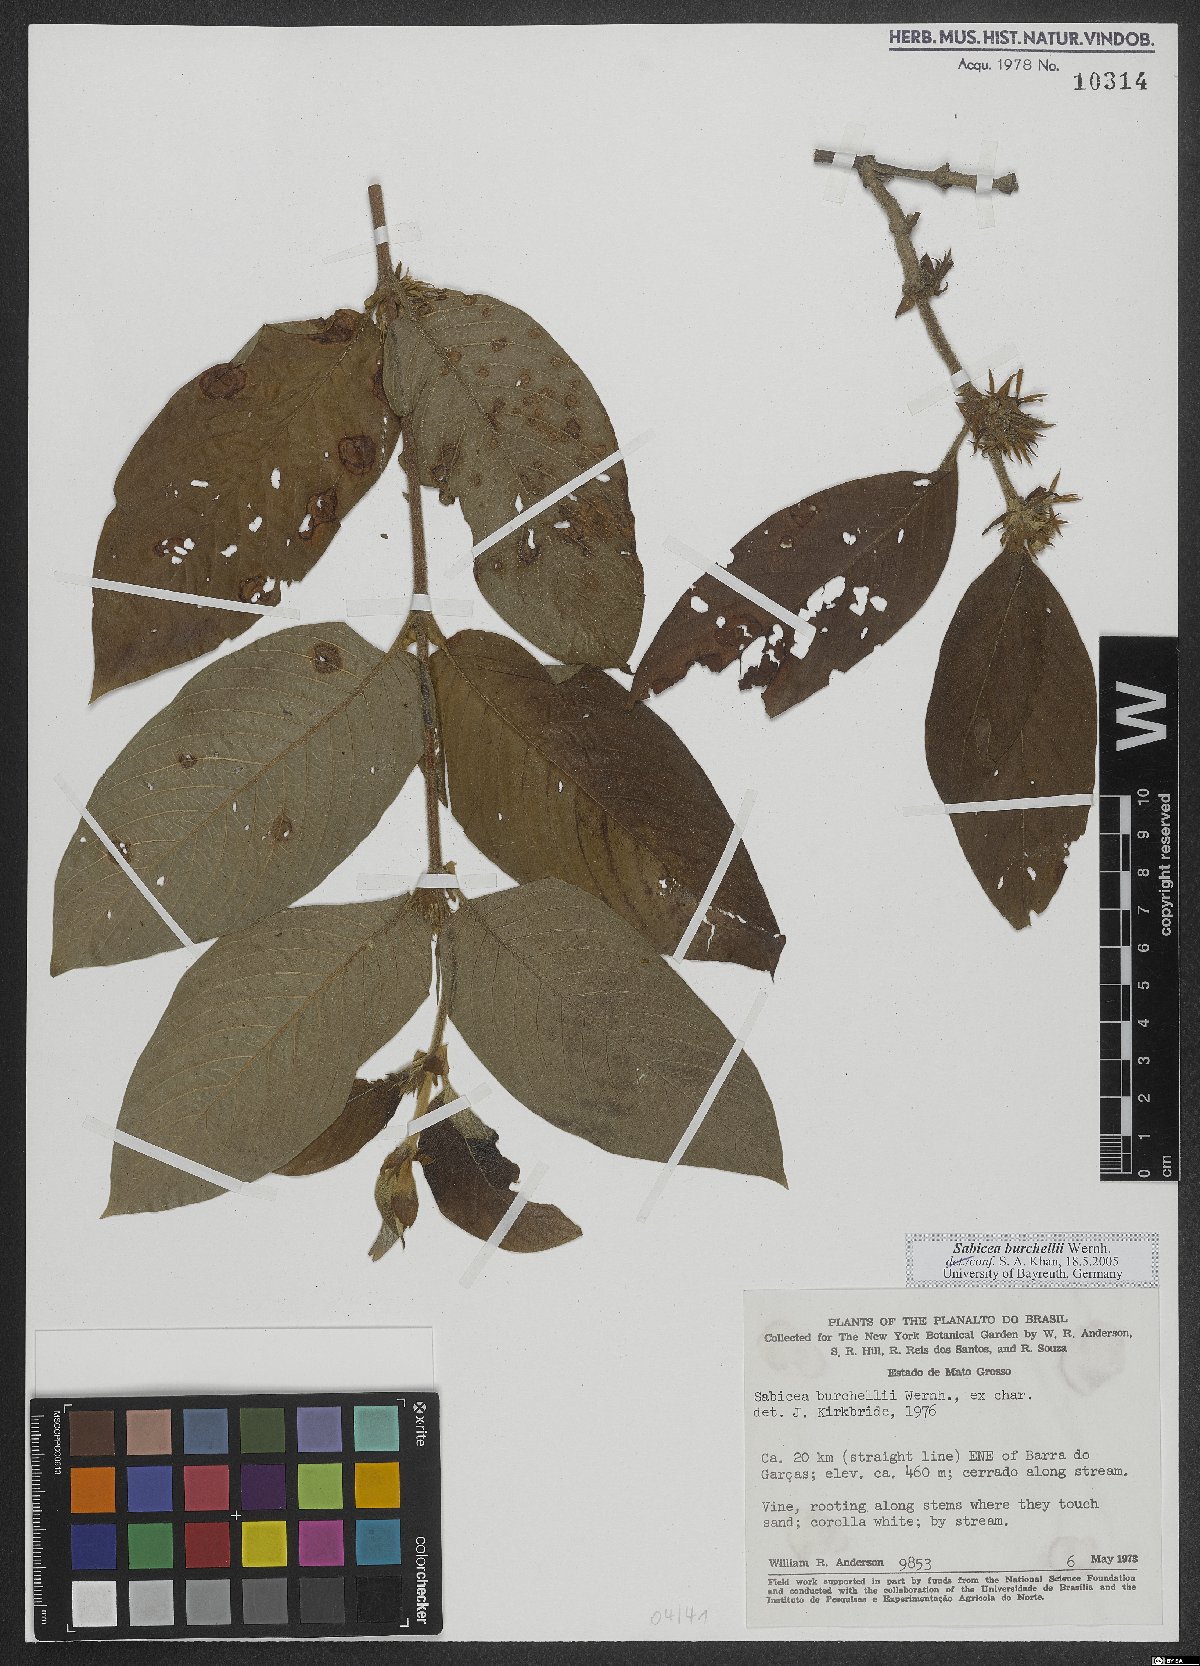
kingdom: Plantae
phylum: Tracheophyta
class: Magnoliopsida
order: Gentianales
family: Rubiaceae
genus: Sabicea
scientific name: Sabicea burchellii
